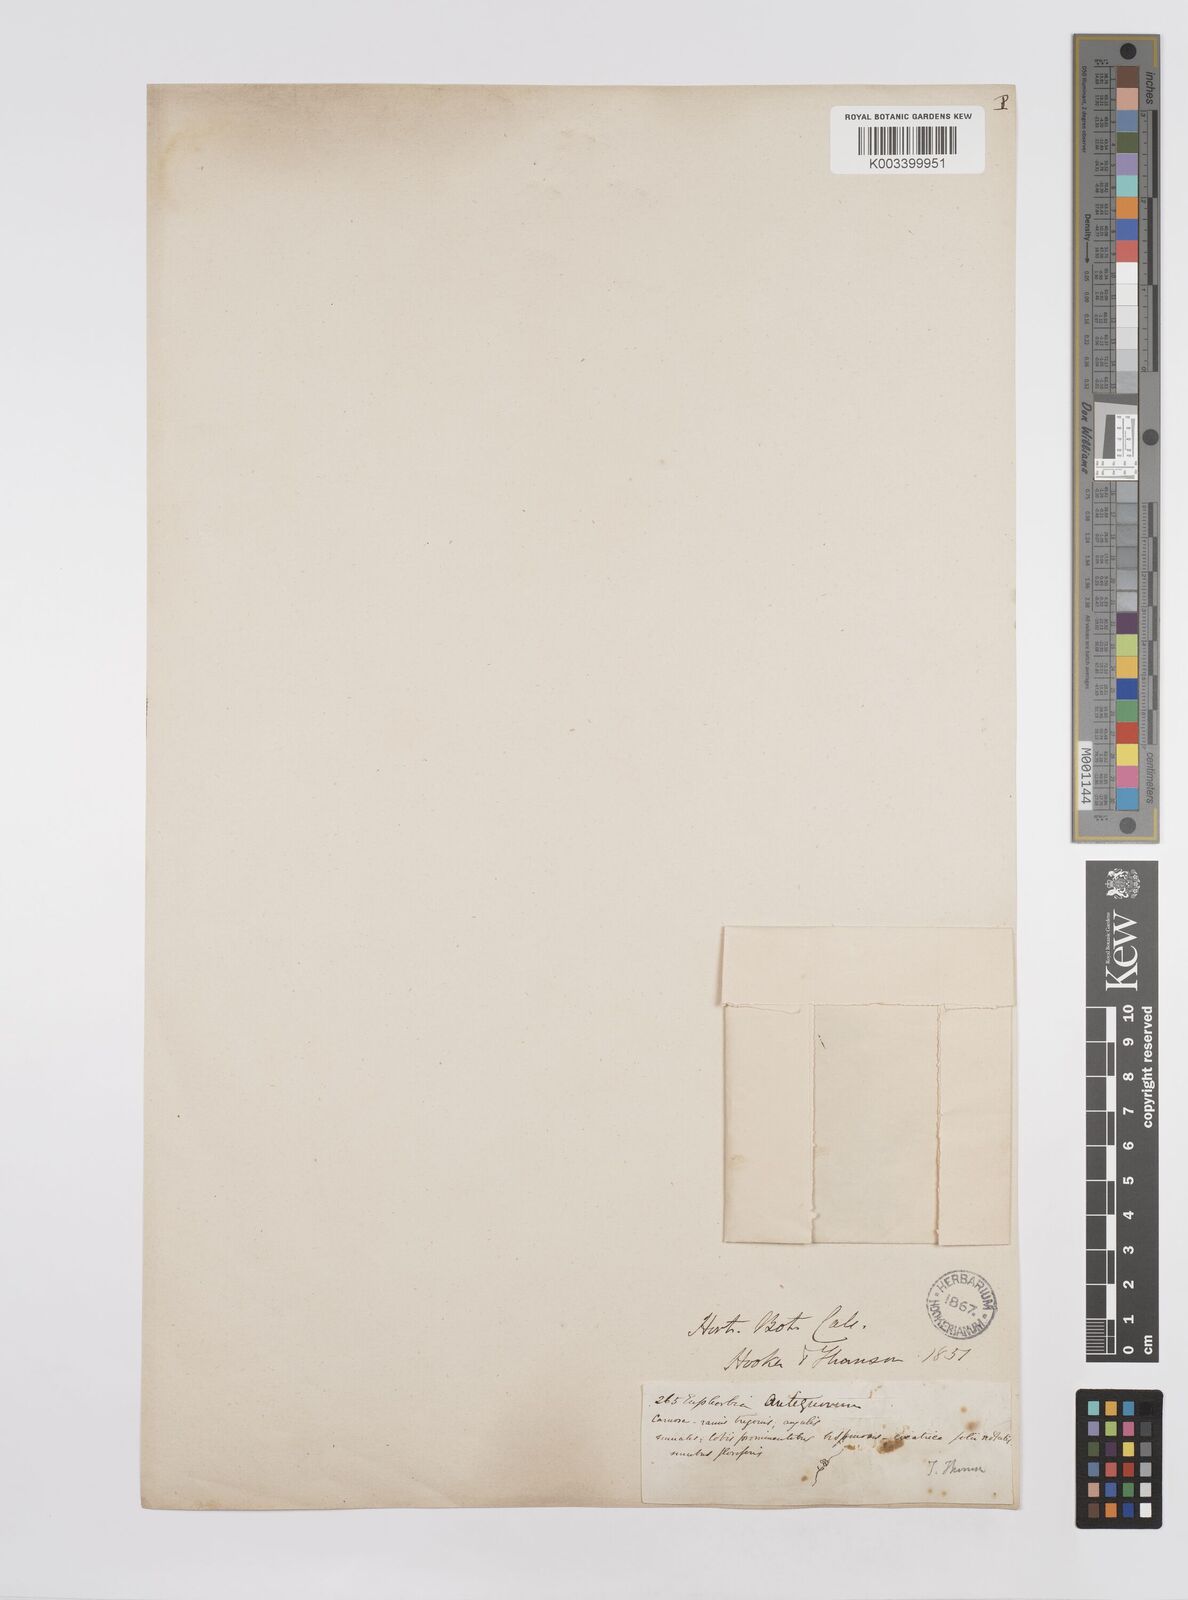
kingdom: Plantae
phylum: Tracheophyta
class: Magnoliopsida
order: Malpighiales
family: Euphorbiaceae
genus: Euphorbia
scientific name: Euphorbia antiquorum
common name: Malayan spurge tree
